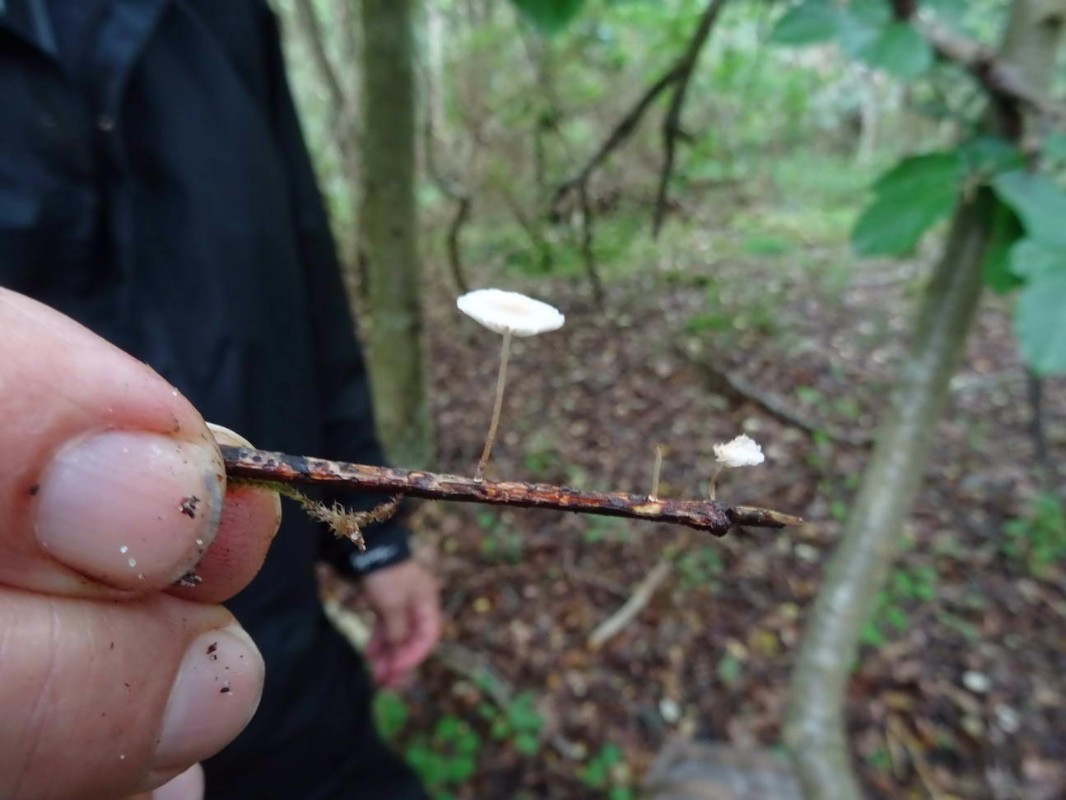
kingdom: Fungi
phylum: Basidiomycota
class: Agaricomycetes
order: Agaricales
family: Omphalotaceae
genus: Collybiopsis
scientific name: Collybiopsis ramealis
